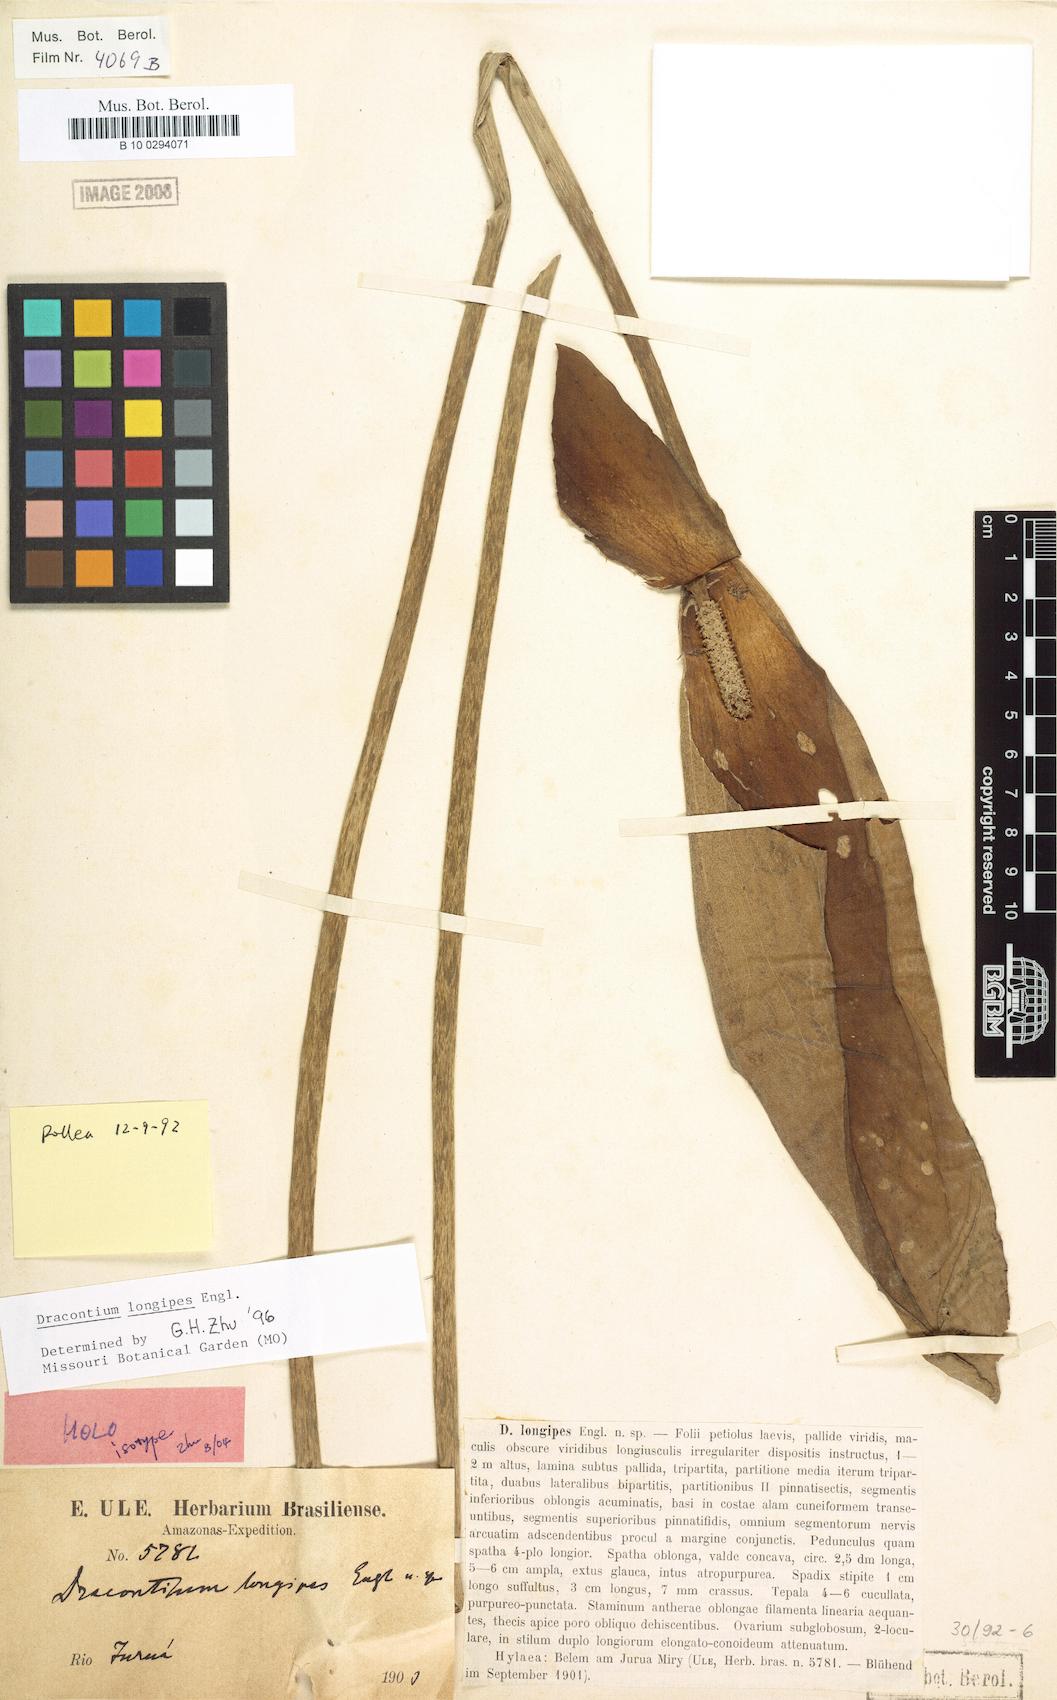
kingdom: Plantae
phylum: Tracheophyta
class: Liliopsida
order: Alismatales
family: Araceae
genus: Dracontium
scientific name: Dracontium longipes
